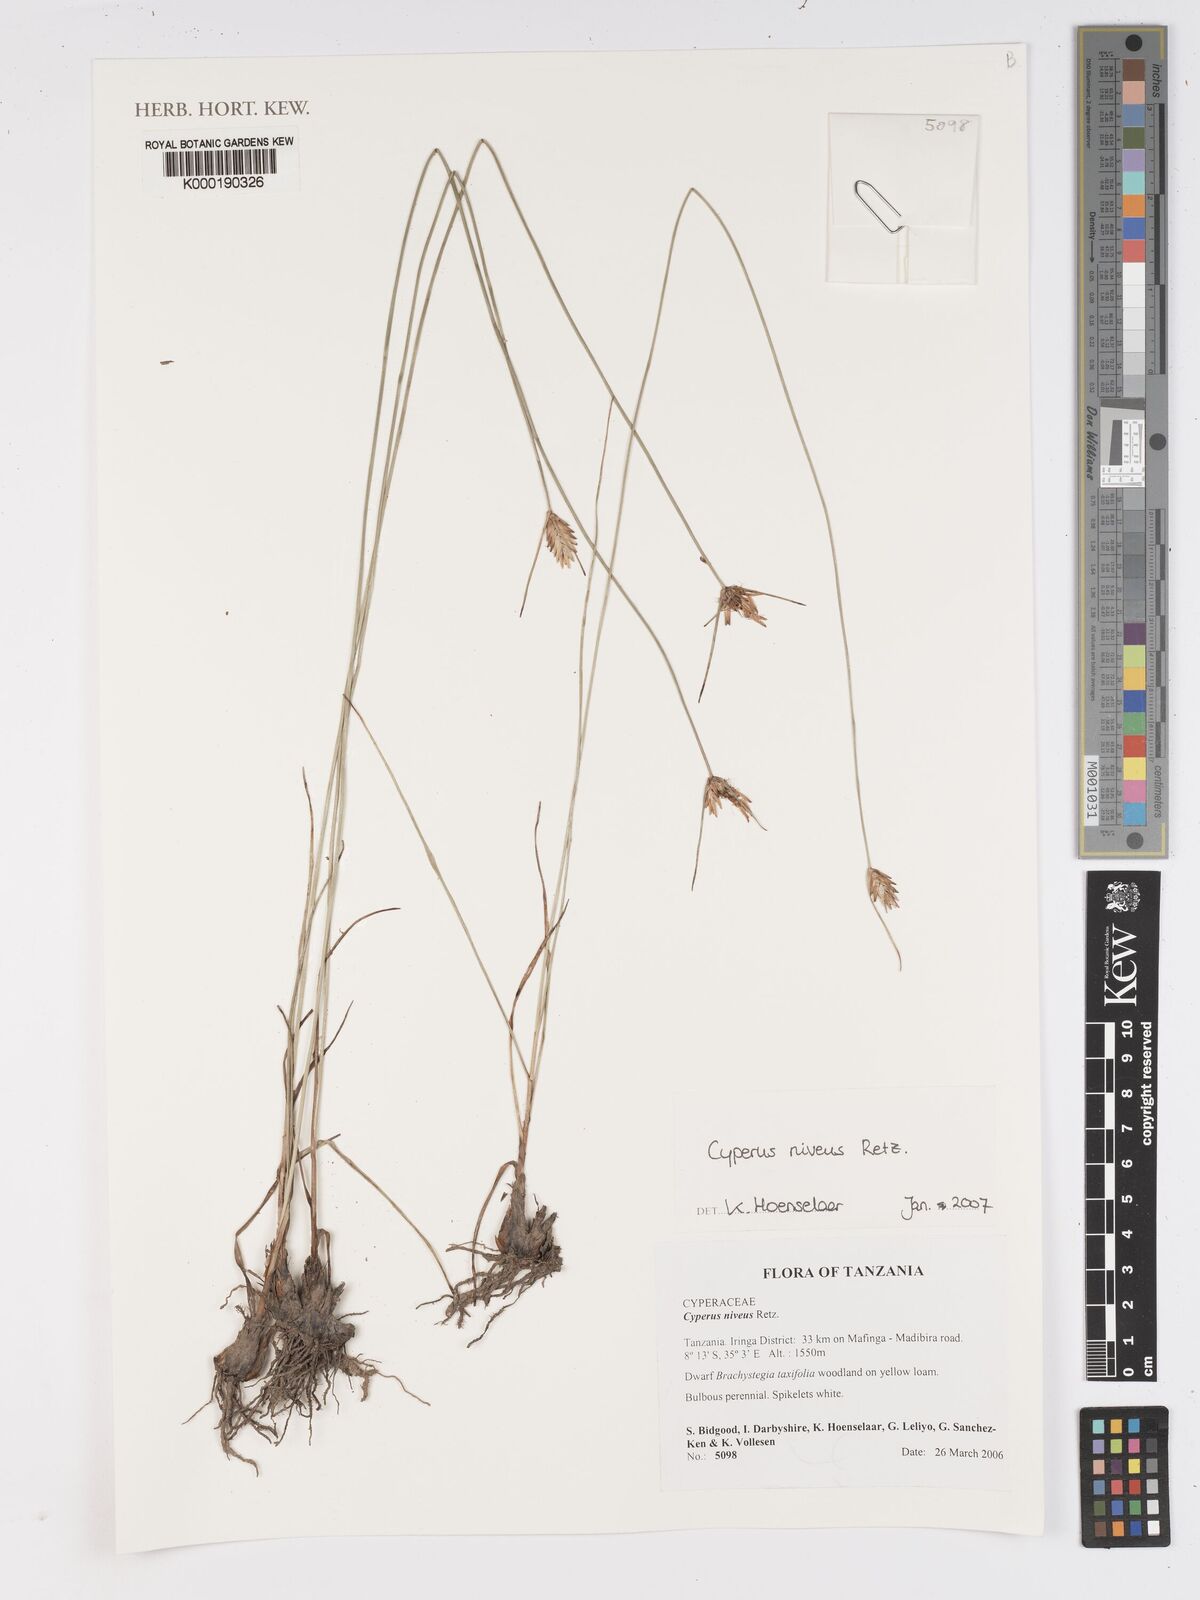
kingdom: Plantae
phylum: Tracheophyta
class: Liliopsida
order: Poales
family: Cyperaceae
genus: Cyperus
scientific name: Cyperus niveus
